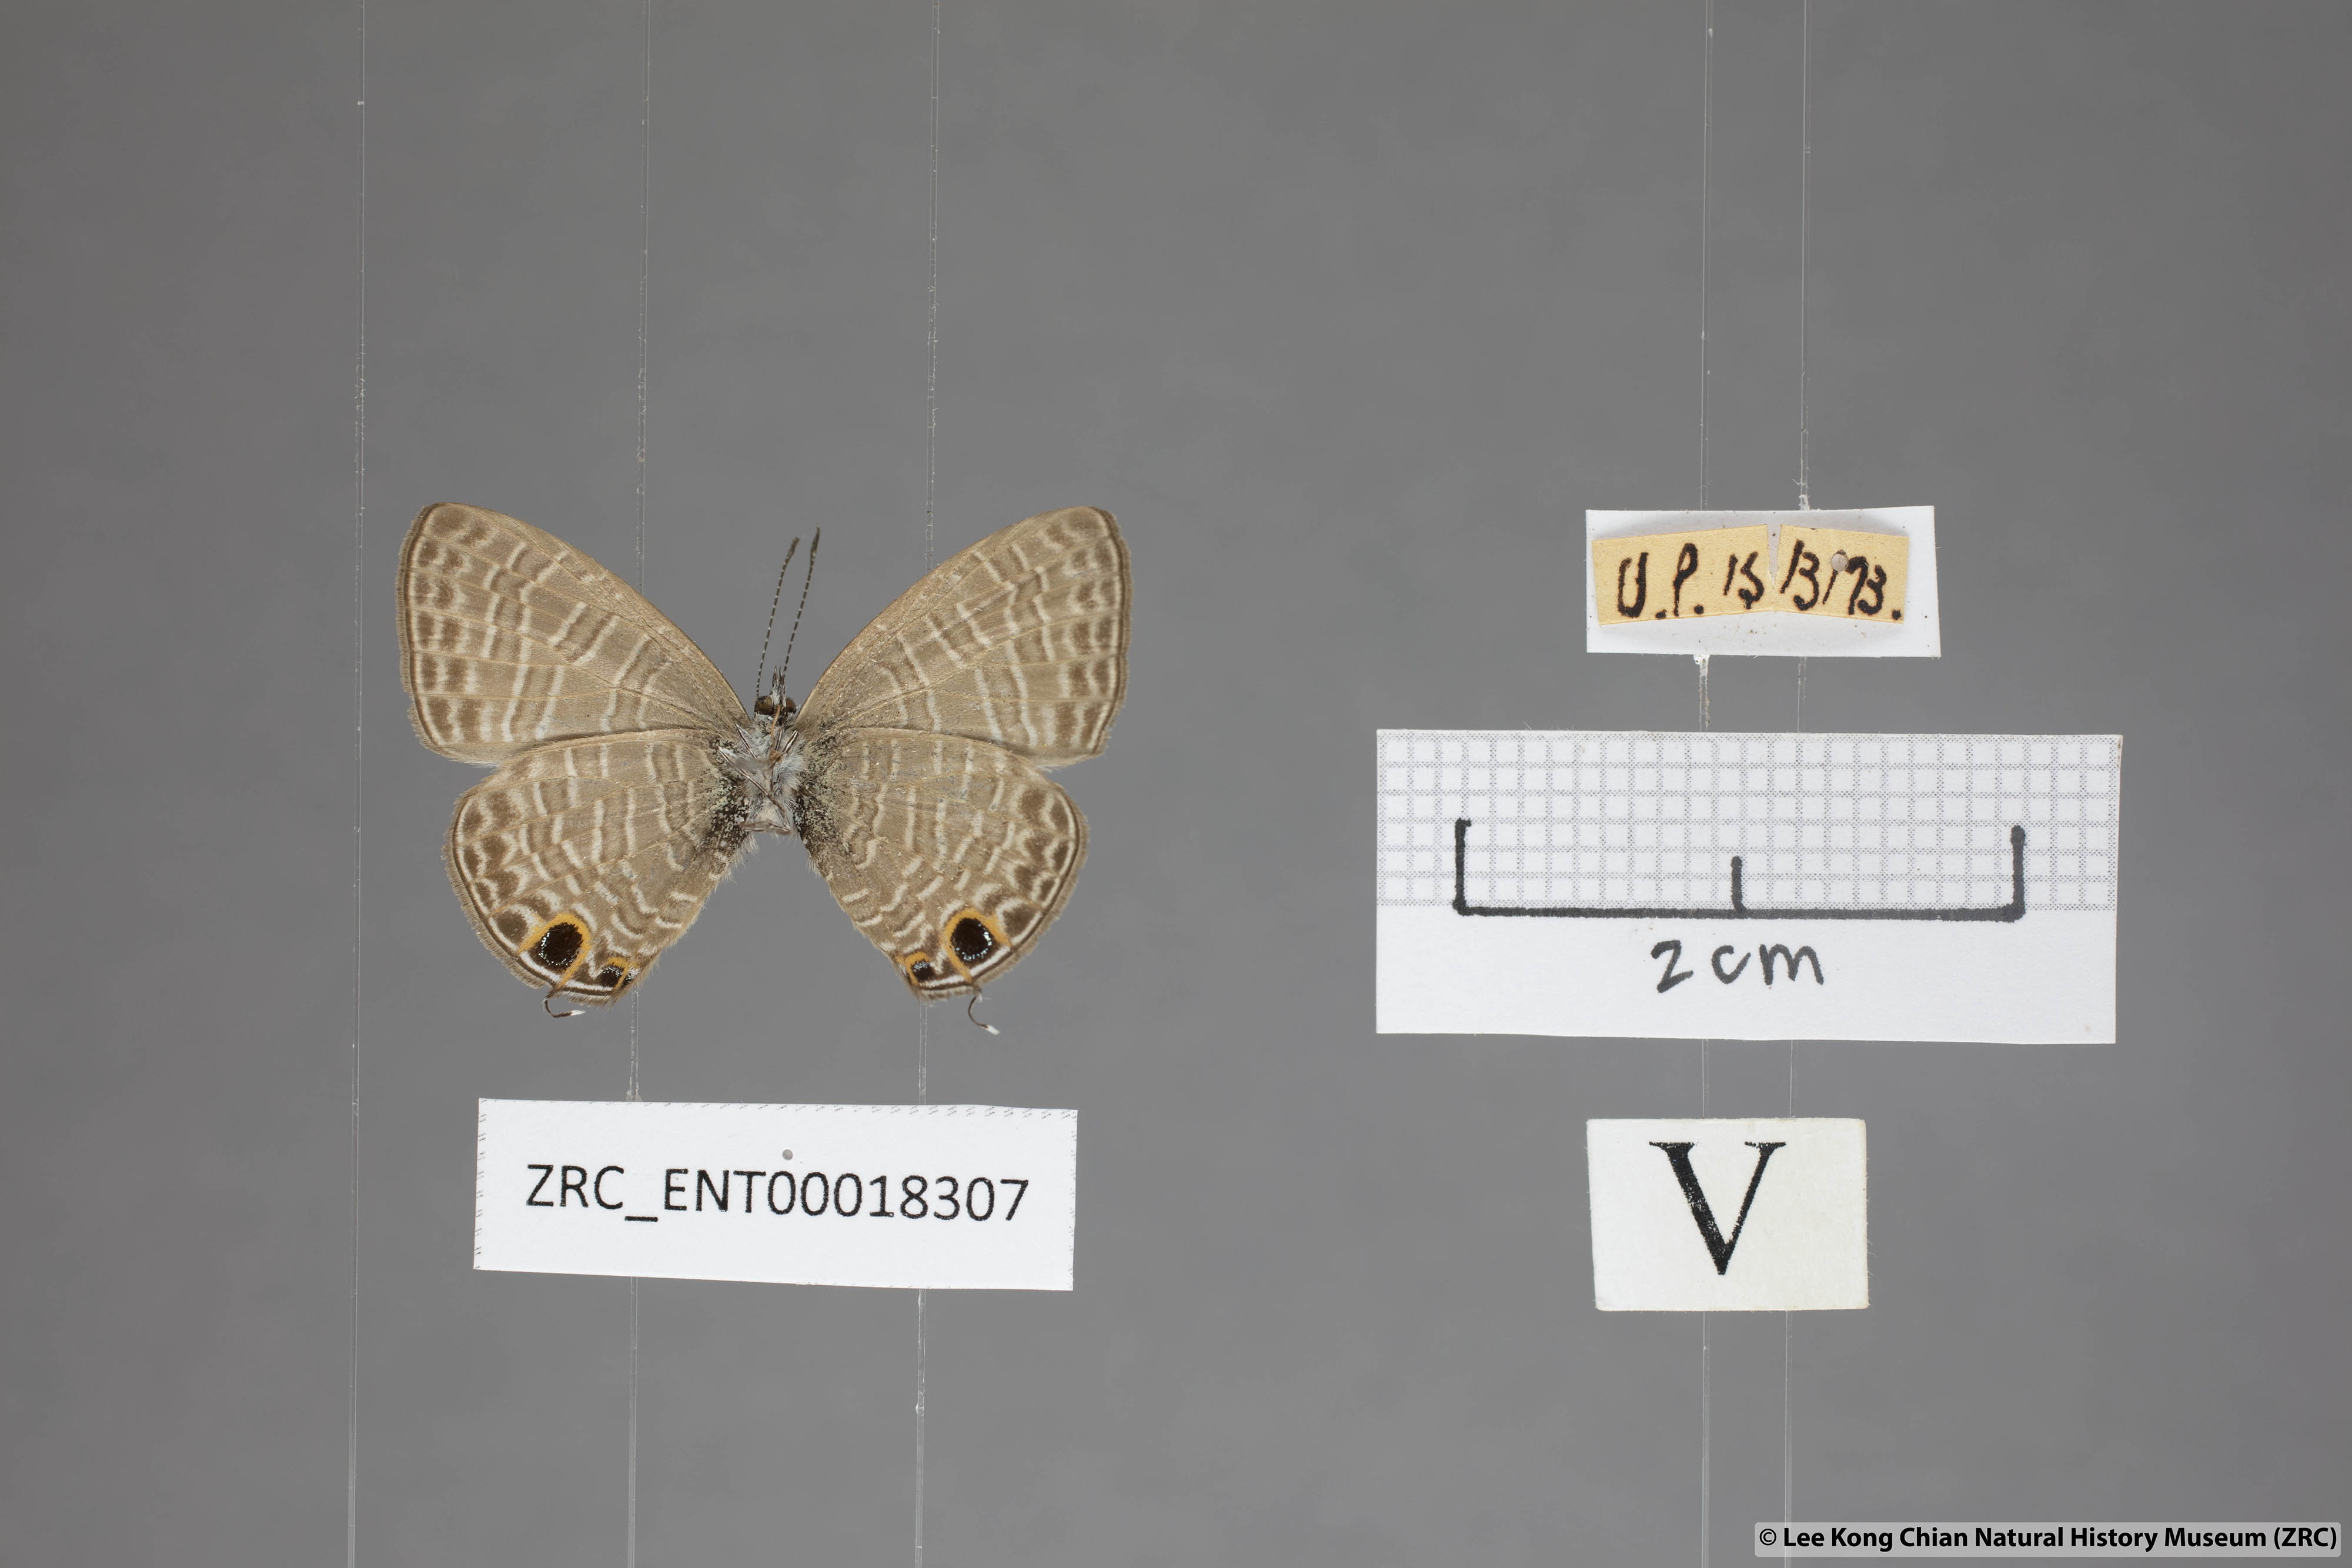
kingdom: Animalia
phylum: Arthropoda
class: Insecta
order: Lepidoptera
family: Lycaenidae
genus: Nacaduba
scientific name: Nacaduba berenice
